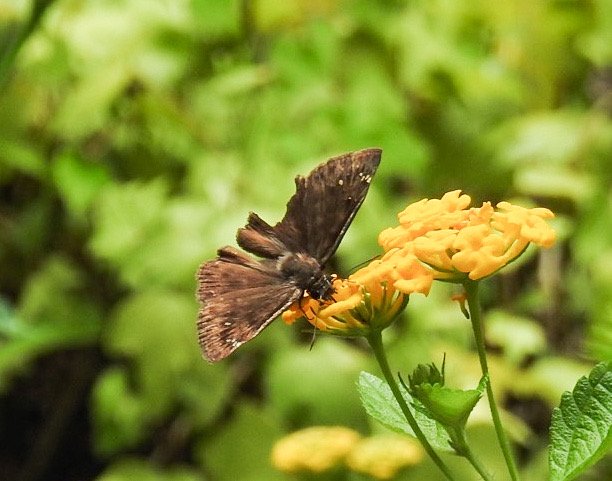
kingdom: Animalia
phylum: Arthropoda
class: Insecta
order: Lepidoptera
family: Hesperiidae
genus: Gesta
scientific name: Gesta
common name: Horace's Duskywing
